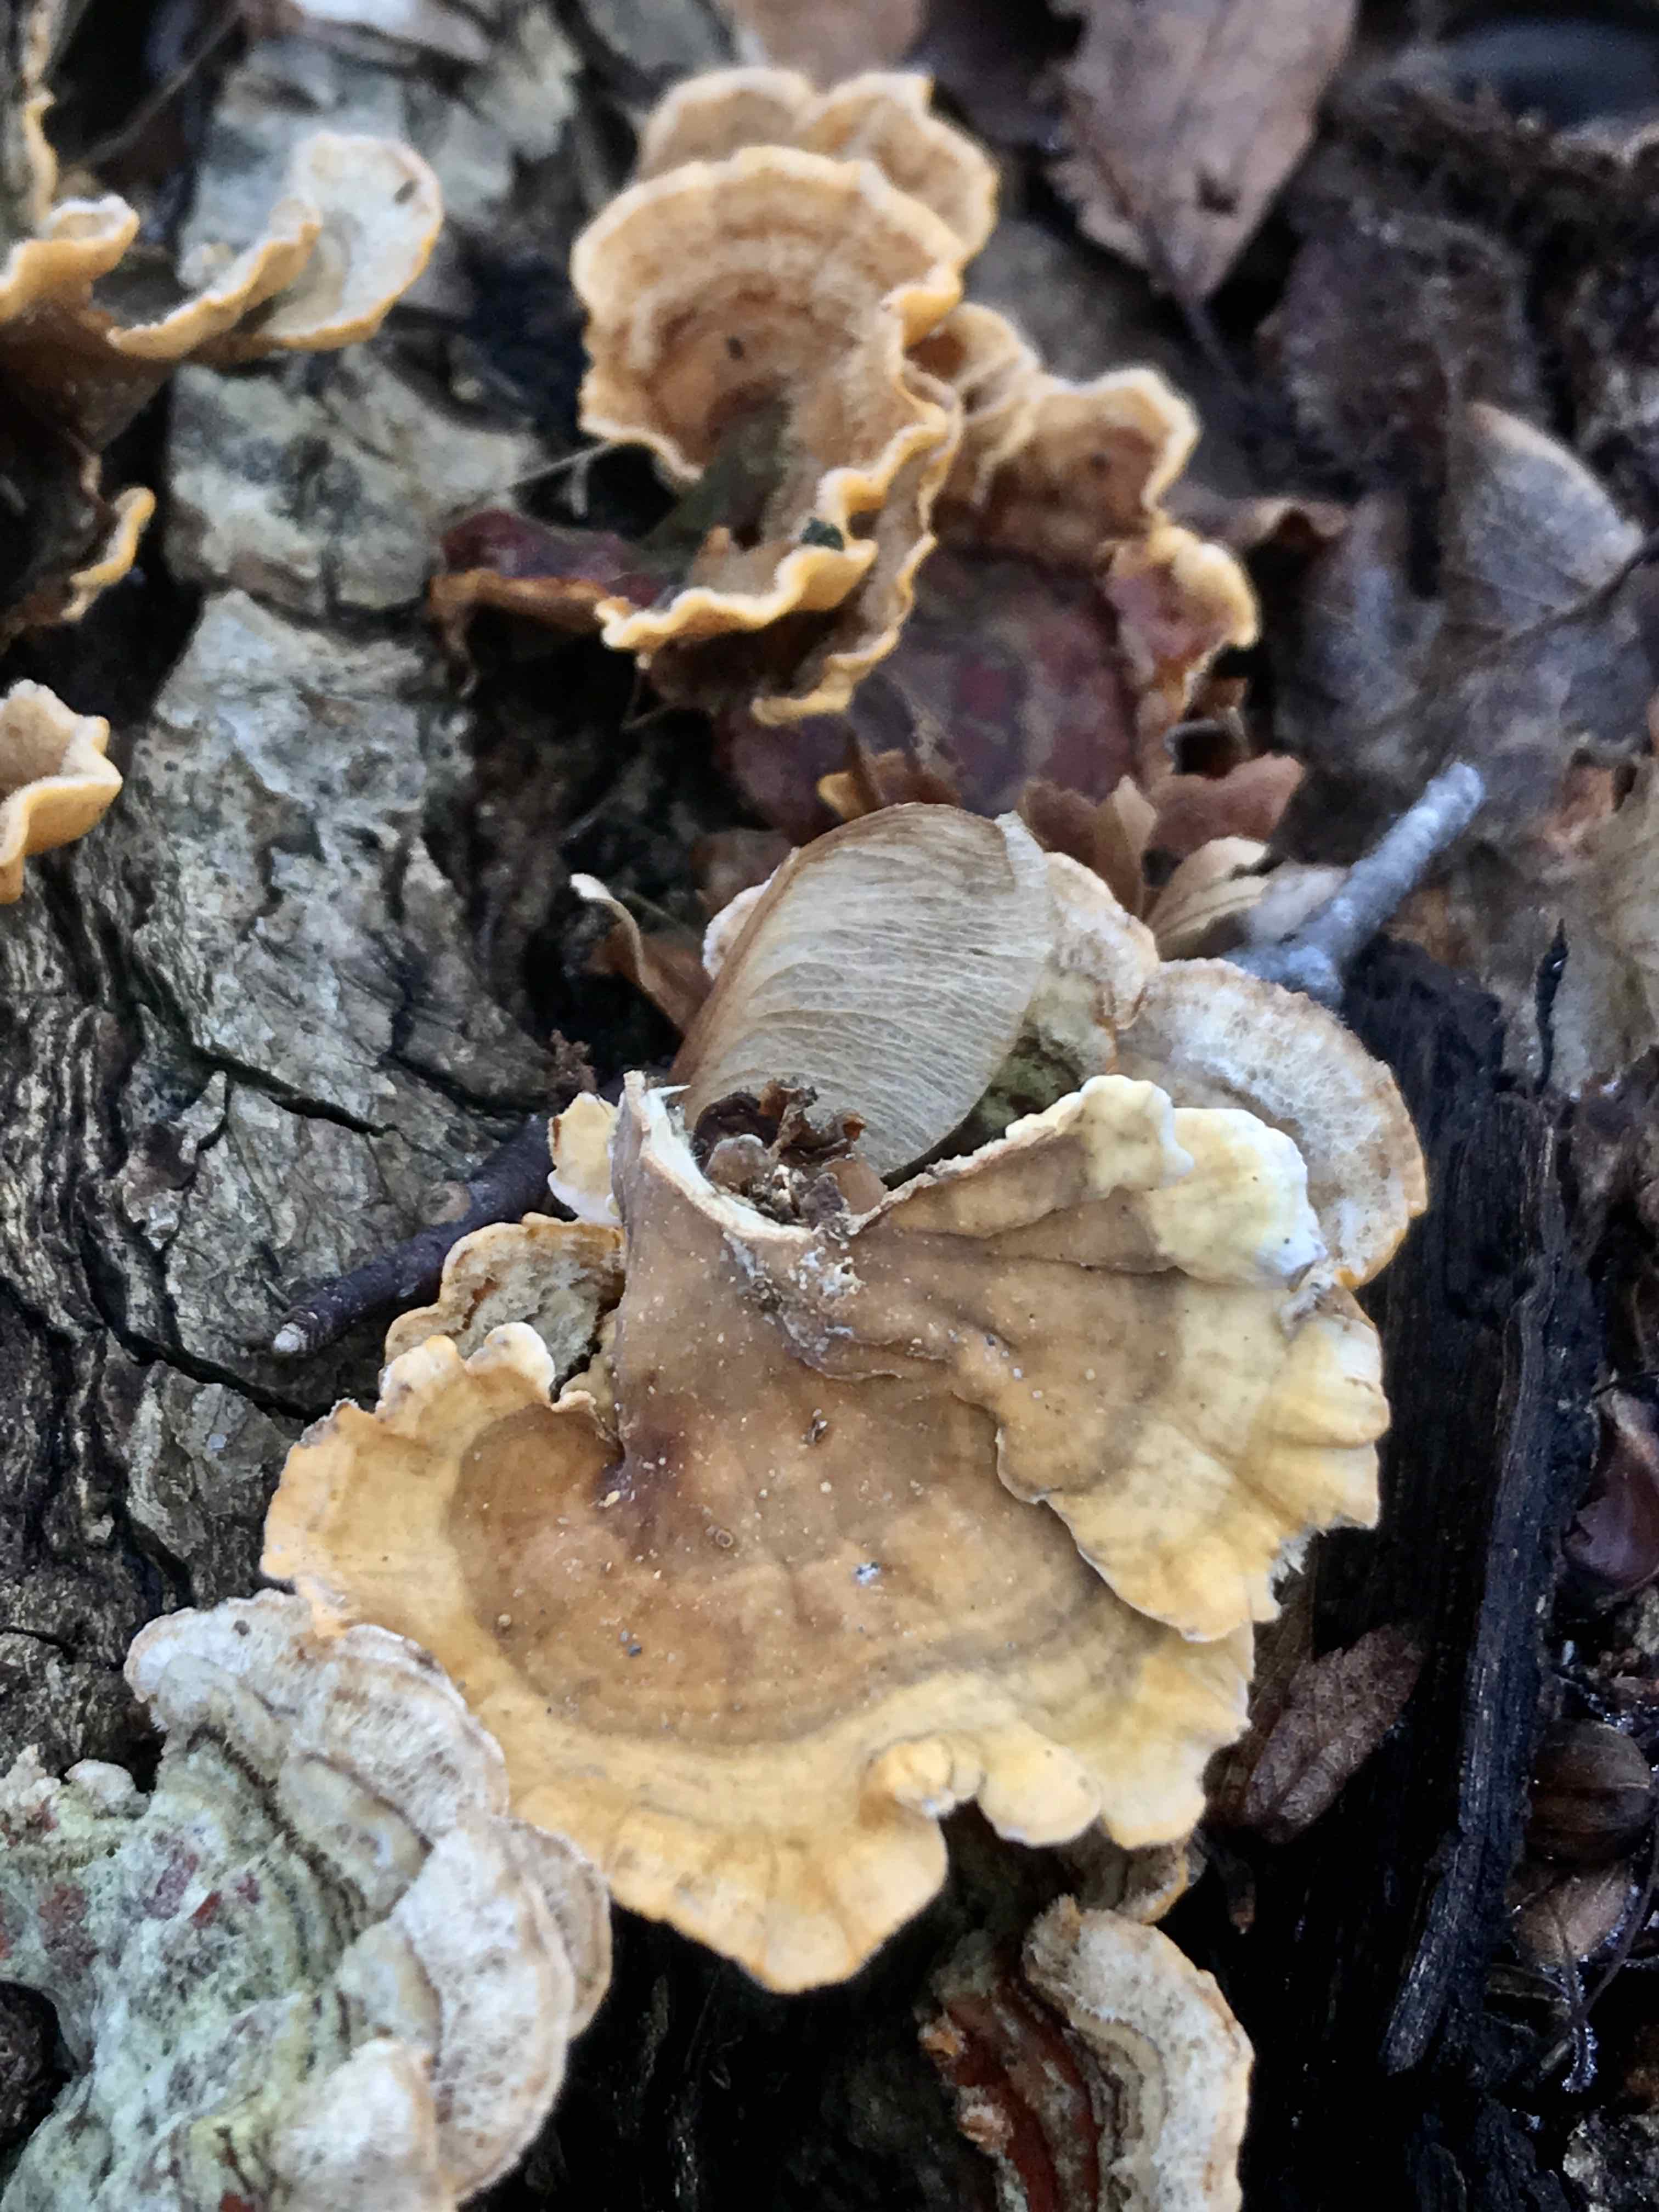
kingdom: Fungi
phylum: Basidiomycota
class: Agaricomycetes
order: Russulales
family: Stereaceae
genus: Stereum
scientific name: Stereum subtomentosum
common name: smuk lædersvamp
